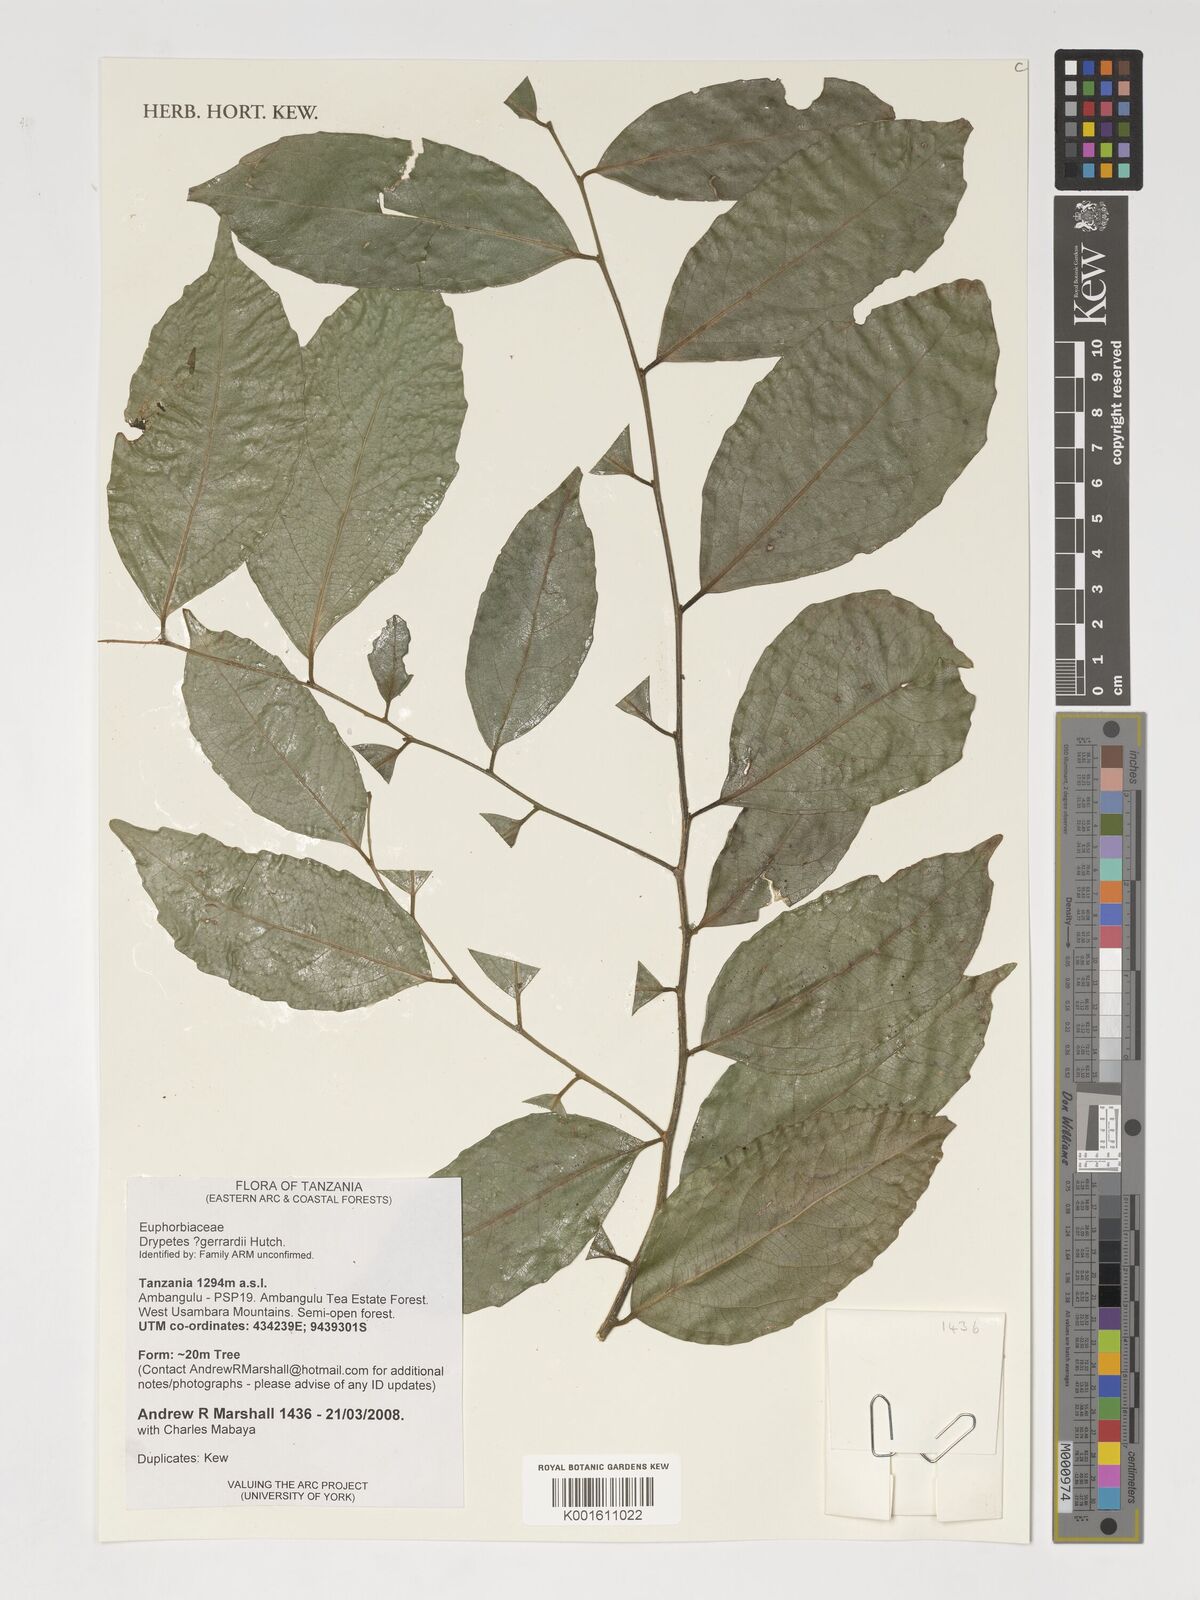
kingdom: Plantae
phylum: Tracheophyta
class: Magnoliopsida
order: Malpighiales
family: Putranjivaceae
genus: Drypetes
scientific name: Drypetes gerrardii
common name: Forest ironplum
